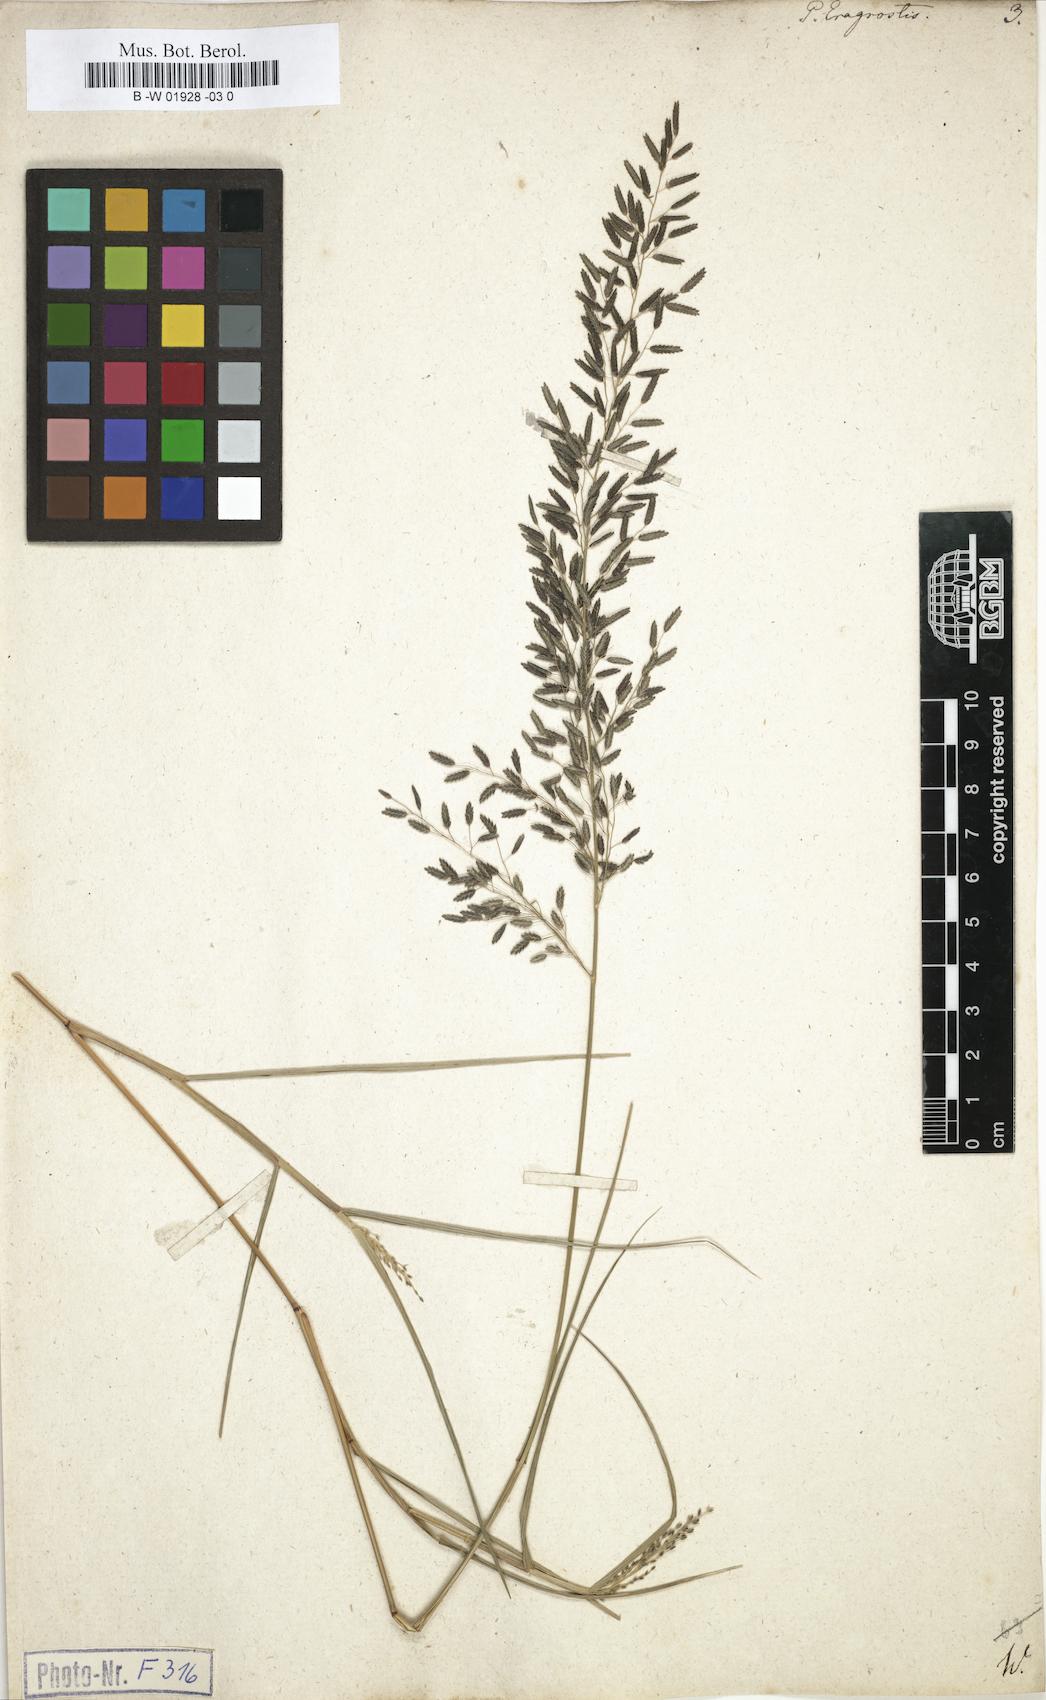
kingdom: Plantae
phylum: Tracheophyta
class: Liliopsida
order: Poales
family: Poaceae
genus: Poa
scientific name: Poa eragrostis
